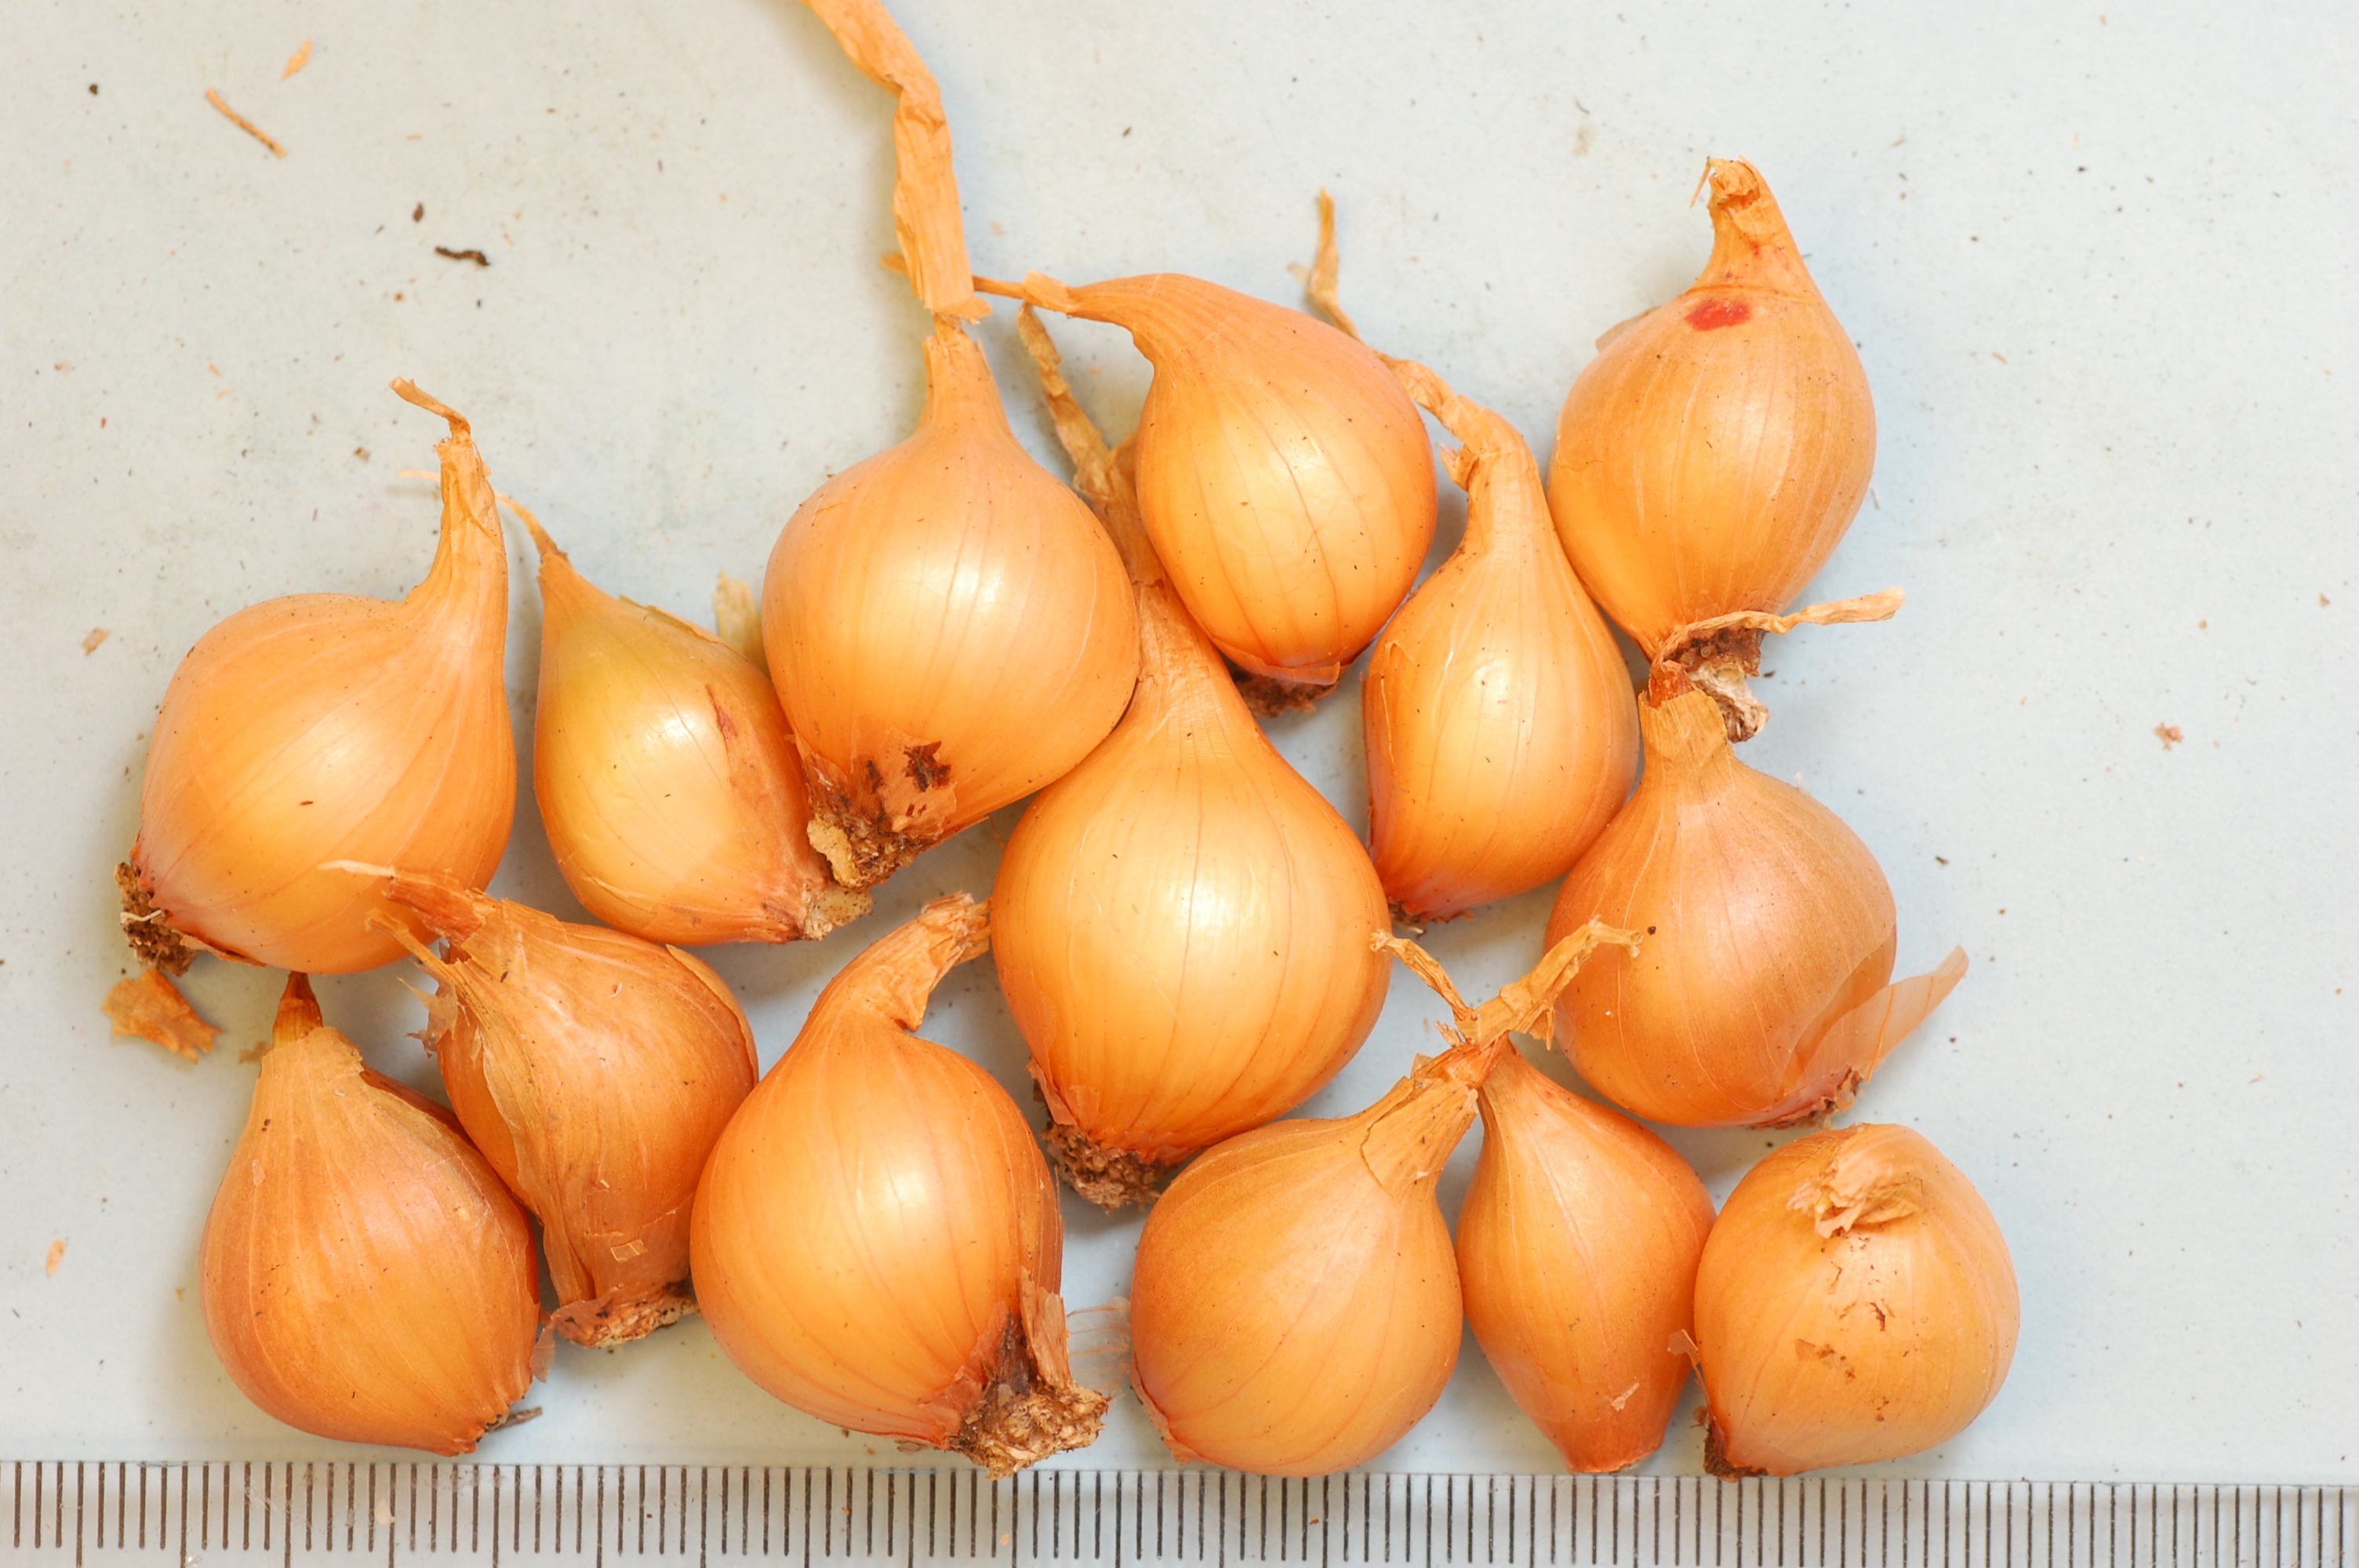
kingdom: Plantae
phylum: Tracheophyta
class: Liliopsida
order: Asparagales
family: Amaryllidaceae
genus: Allium
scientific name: Allium cepa
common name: Onion
